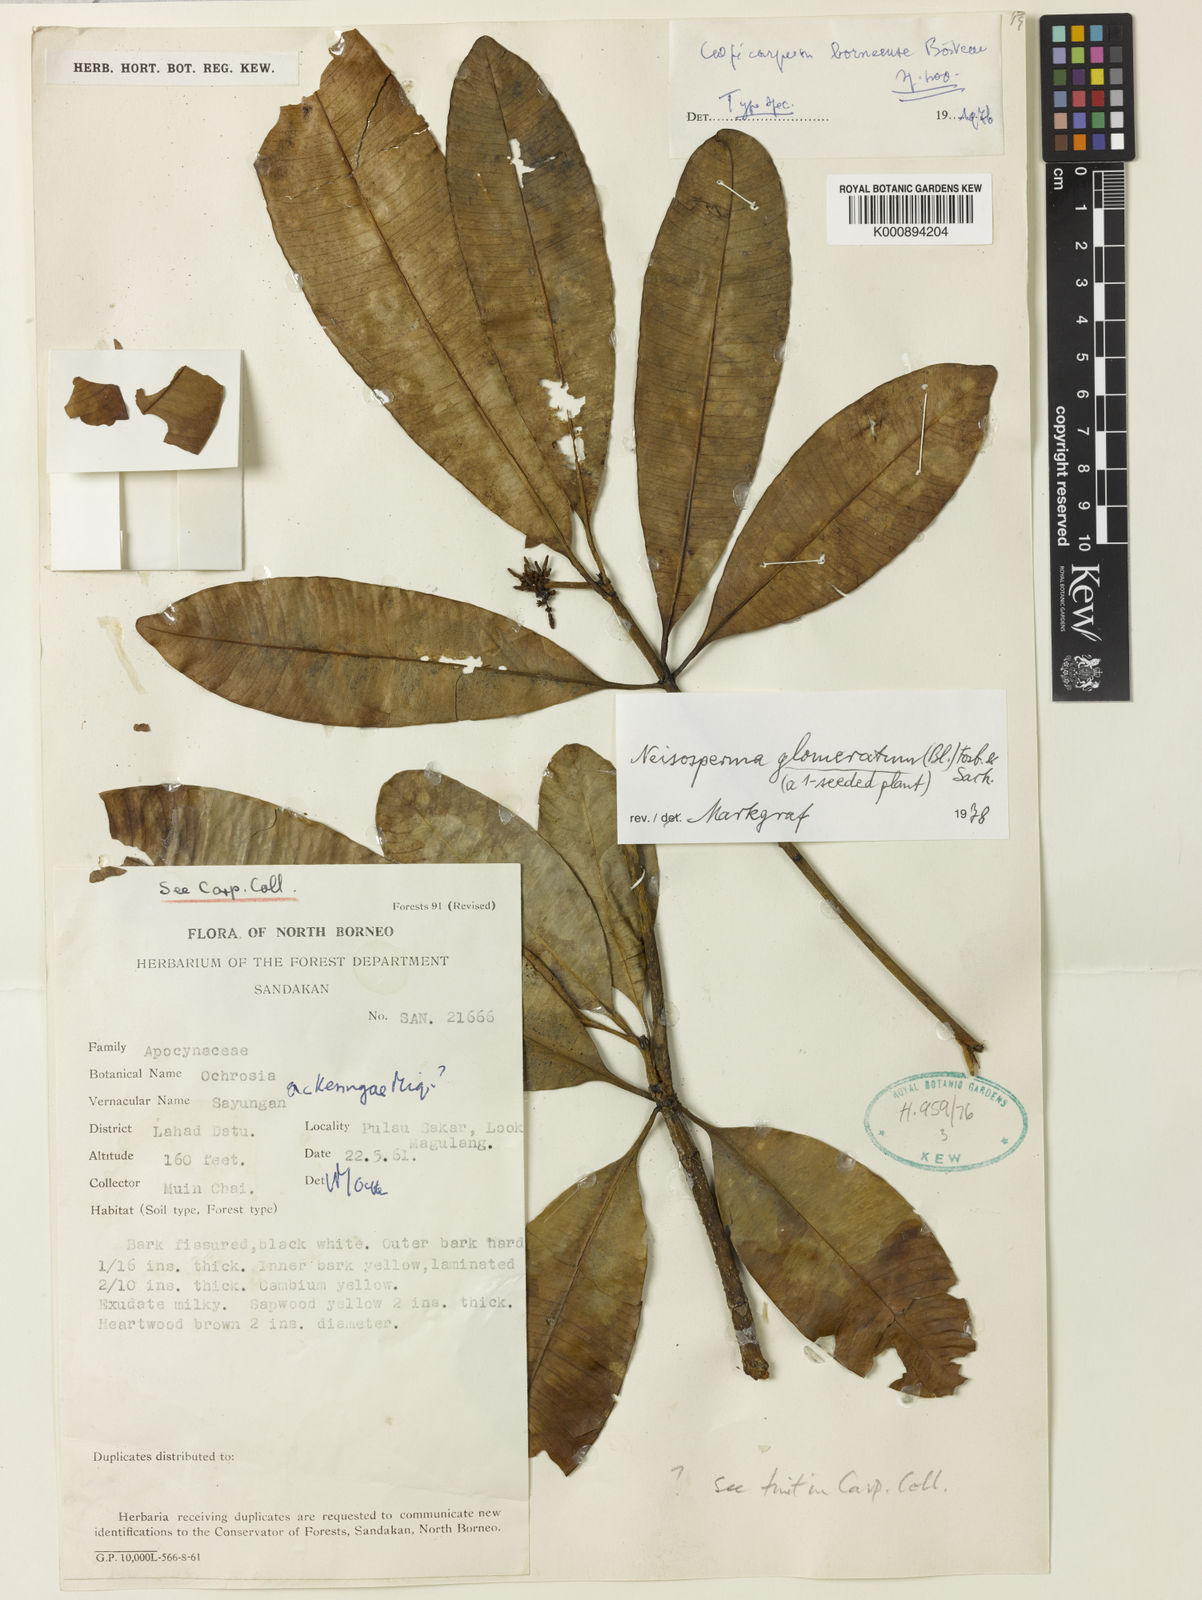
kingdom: Plantae
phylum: Tracheophyta
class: Magnoliopsida
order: Gentianales
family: Apocynaceae
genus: Ochrosia
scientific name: Ochrosia glomerata
